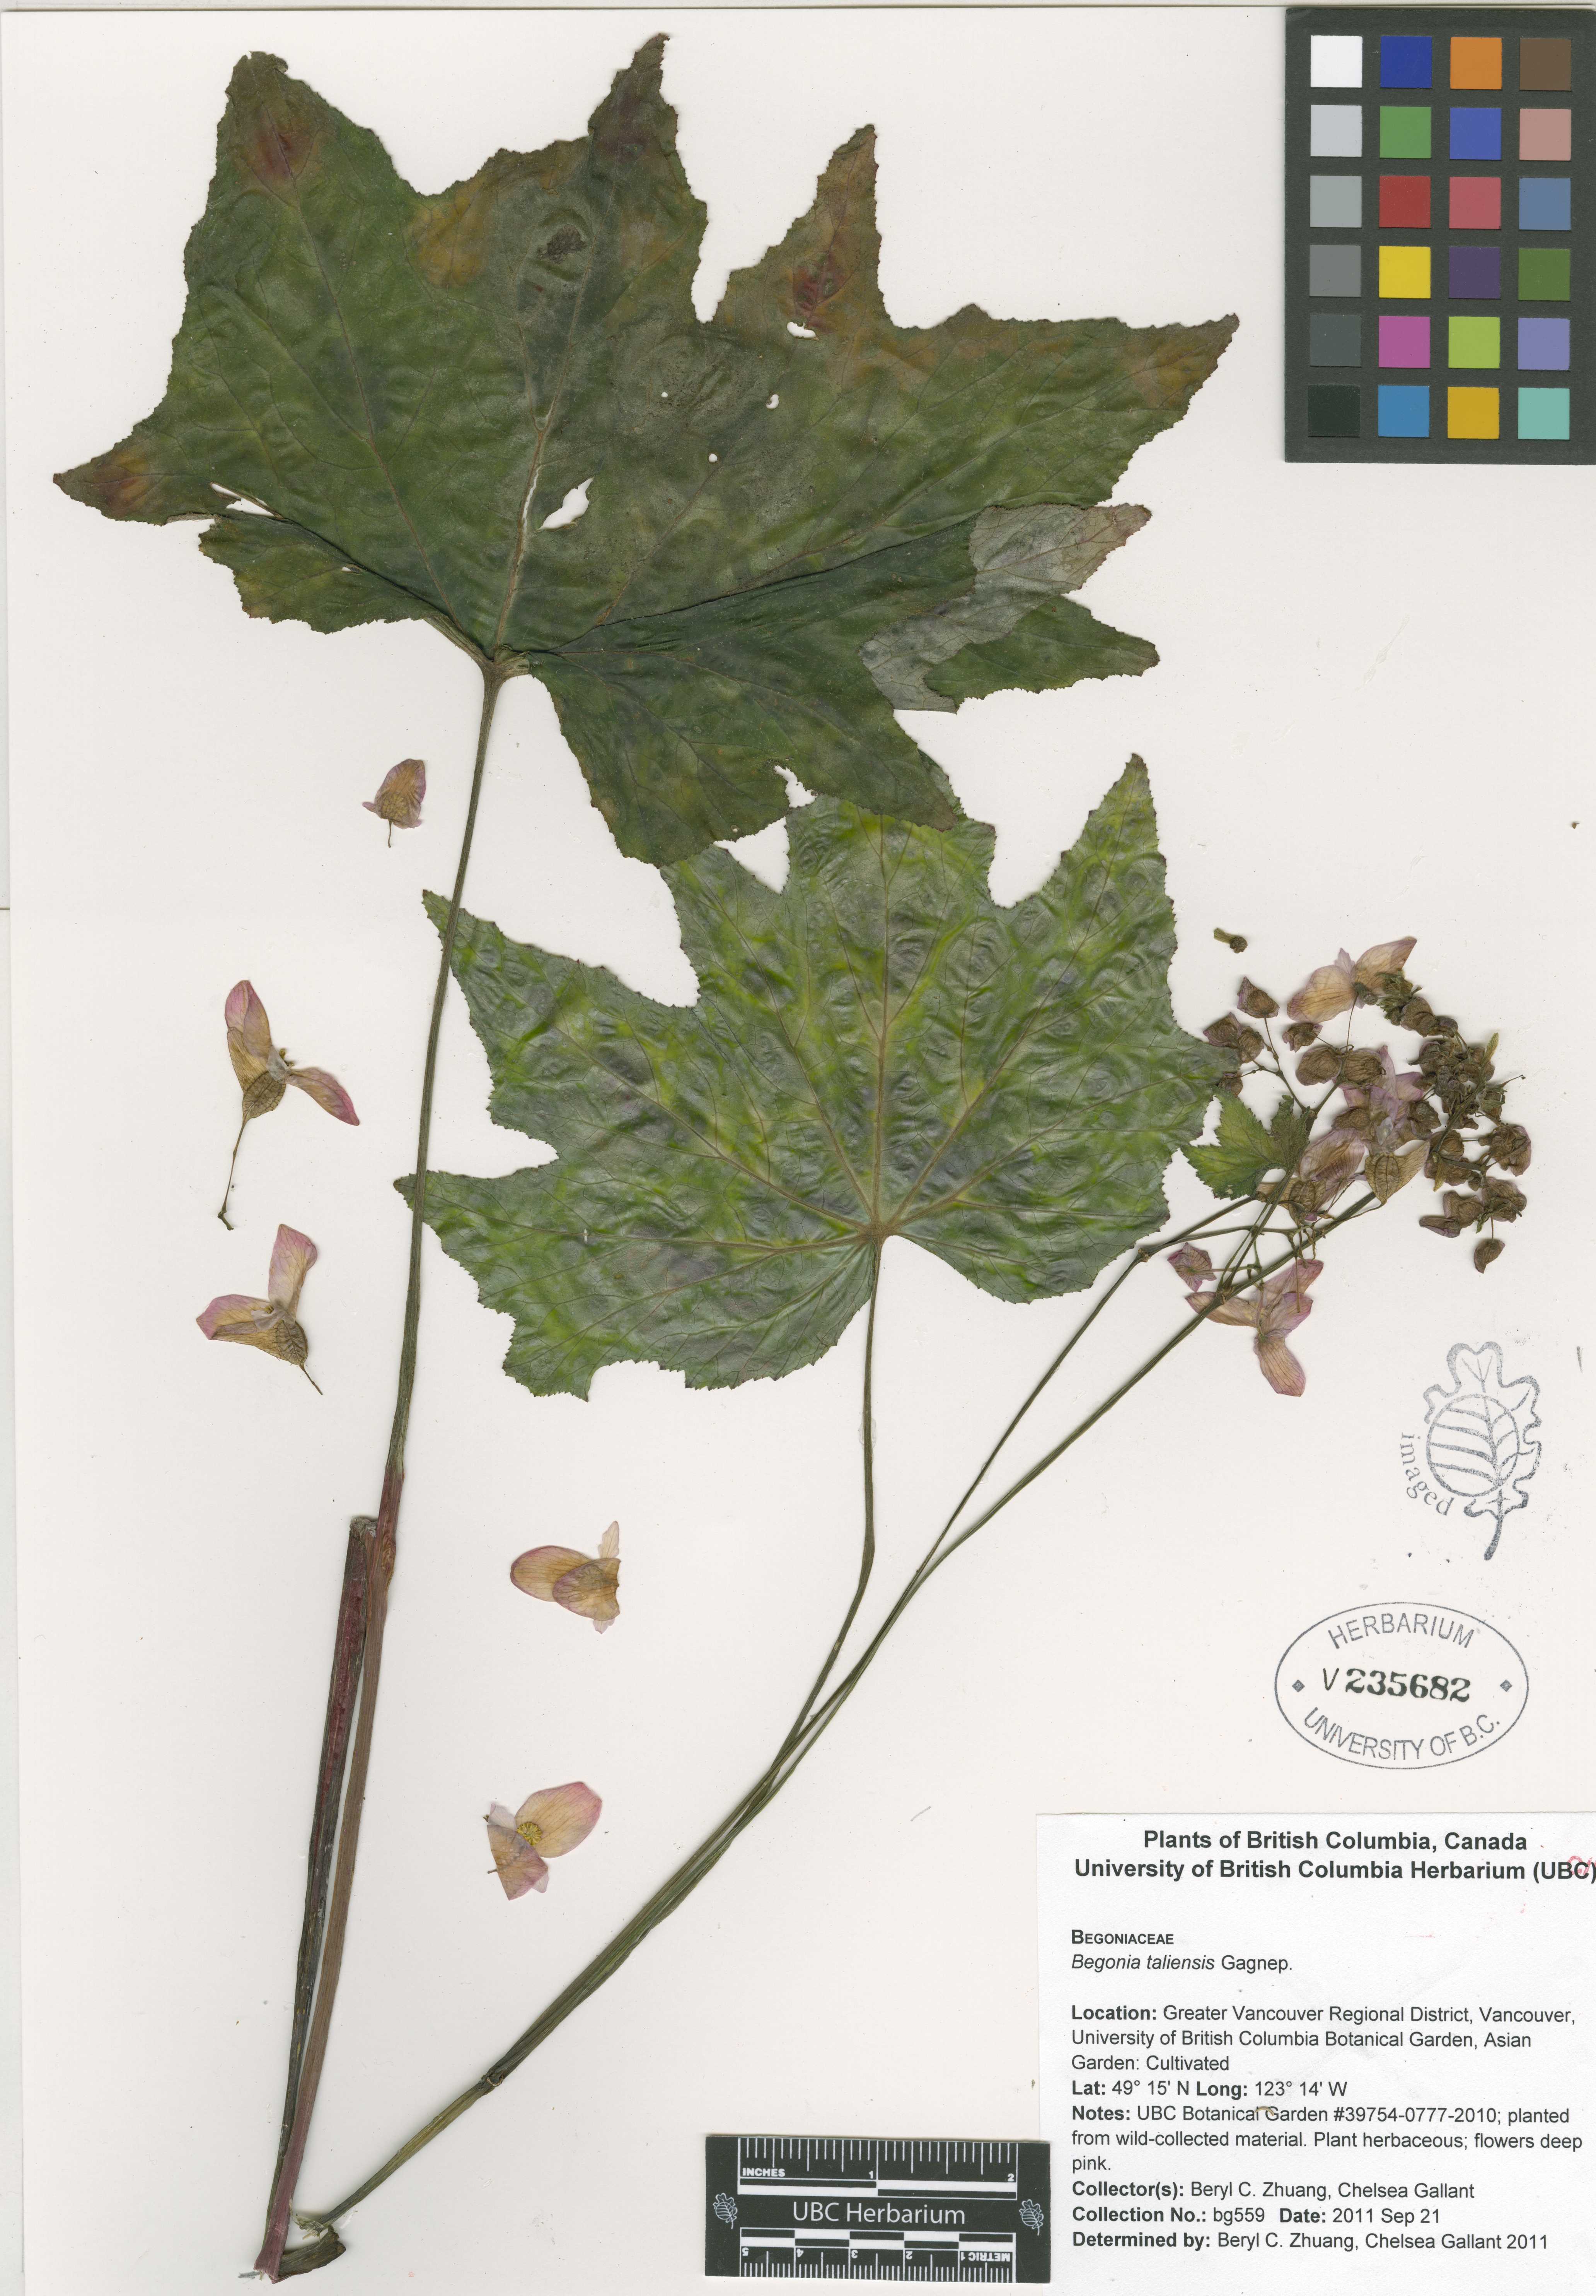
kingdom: Plantae
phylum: Tracheophyta
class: Magnoliopsida
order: Cucurbitales
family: Begoniaceae
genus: Begonia
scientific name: Begonia taliensis
